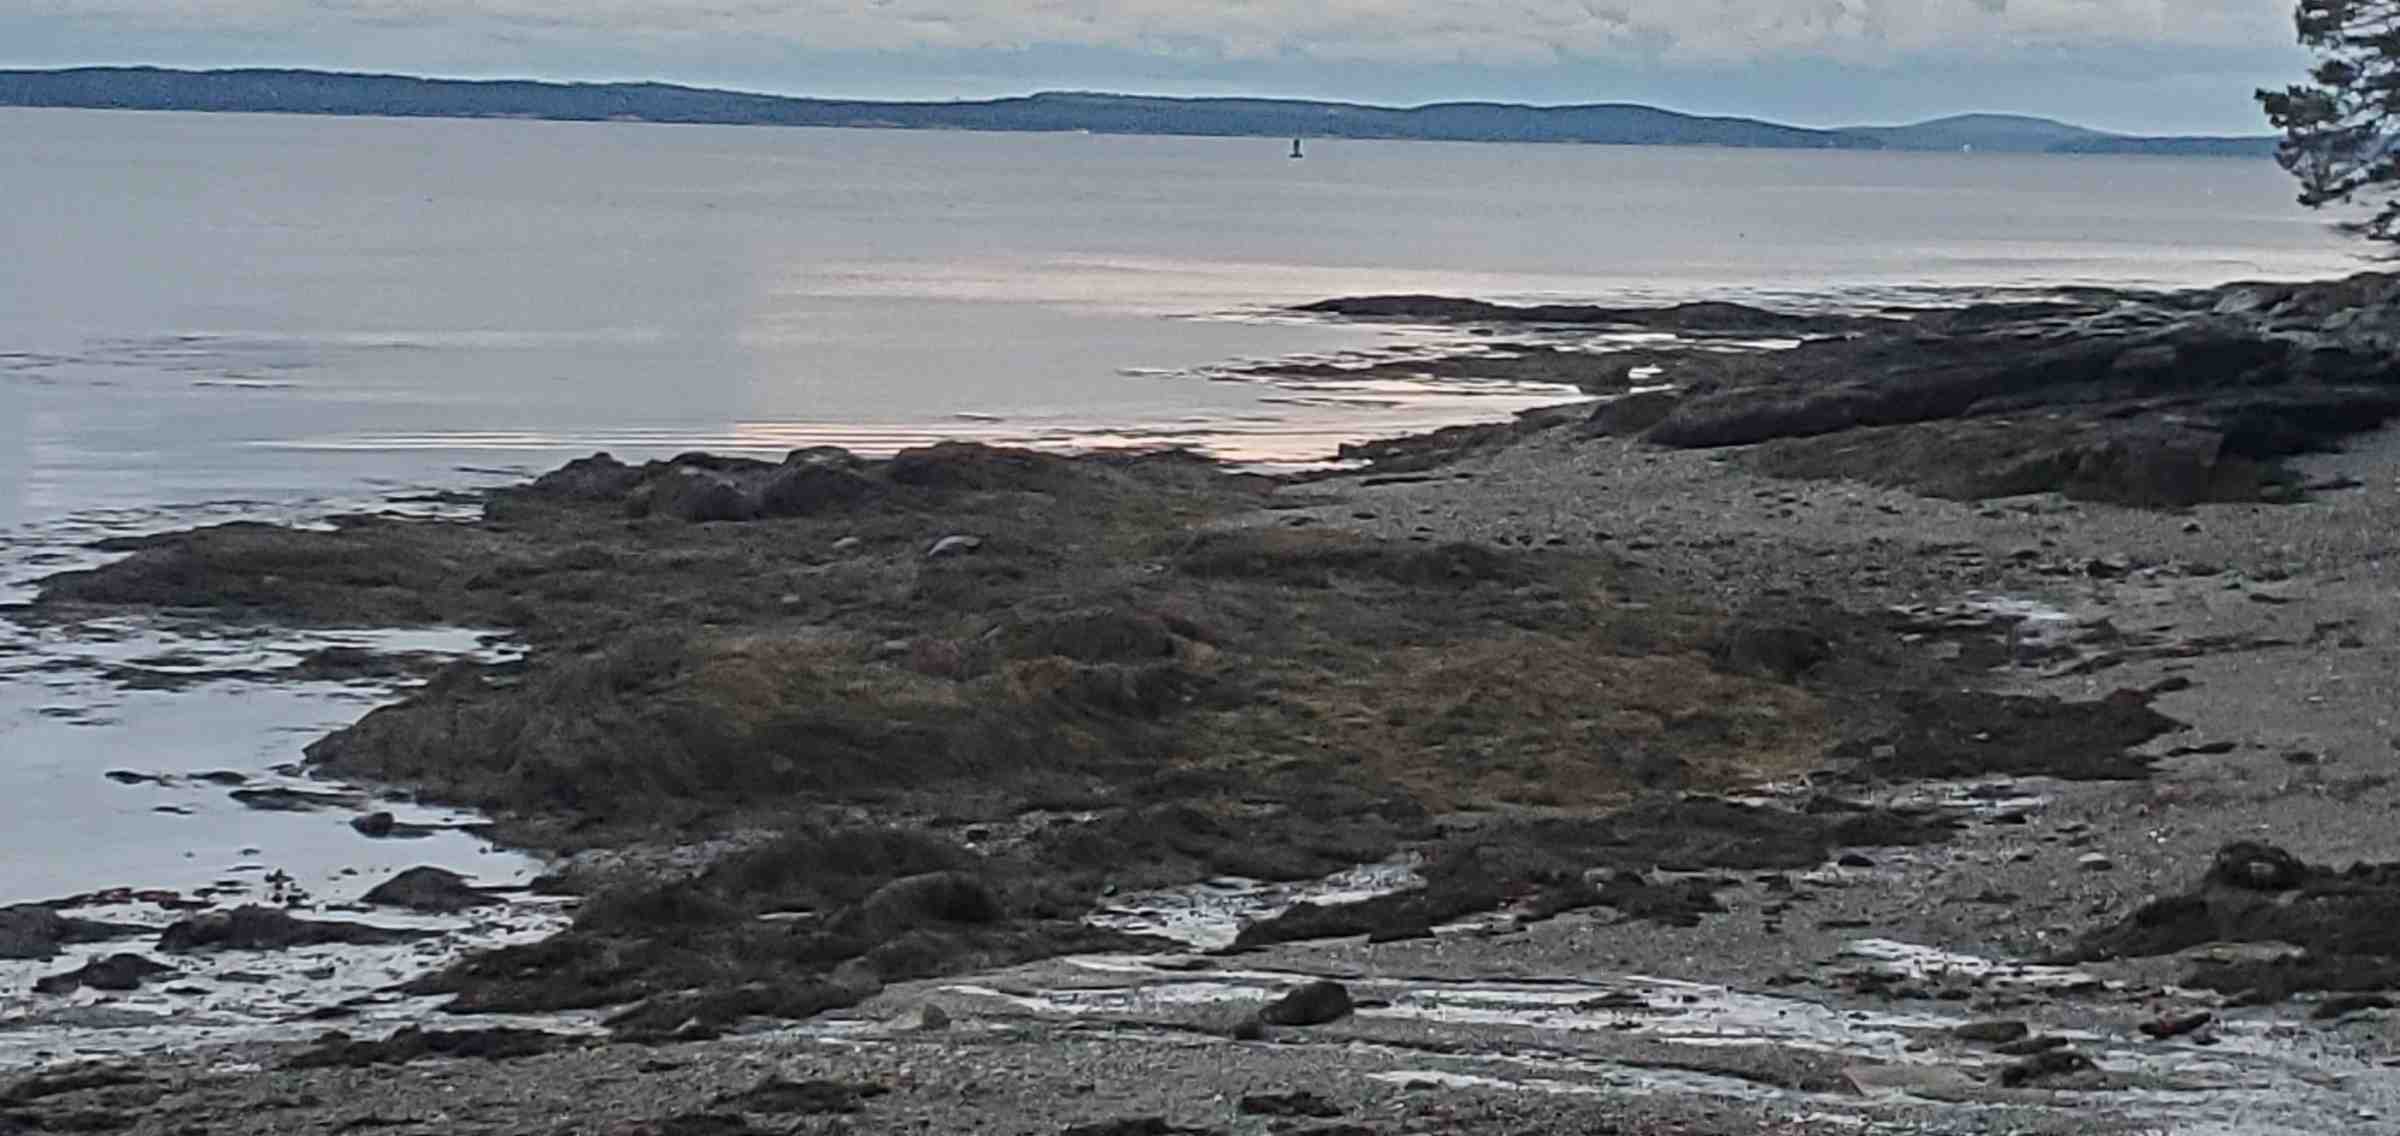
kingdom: Chromista
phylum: Ochrophyta
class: Phaeophyceae
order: Fucales
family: Fucaceae
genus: Ascophyllum
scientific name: Ascophyllum nodosum
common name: Rockweed
